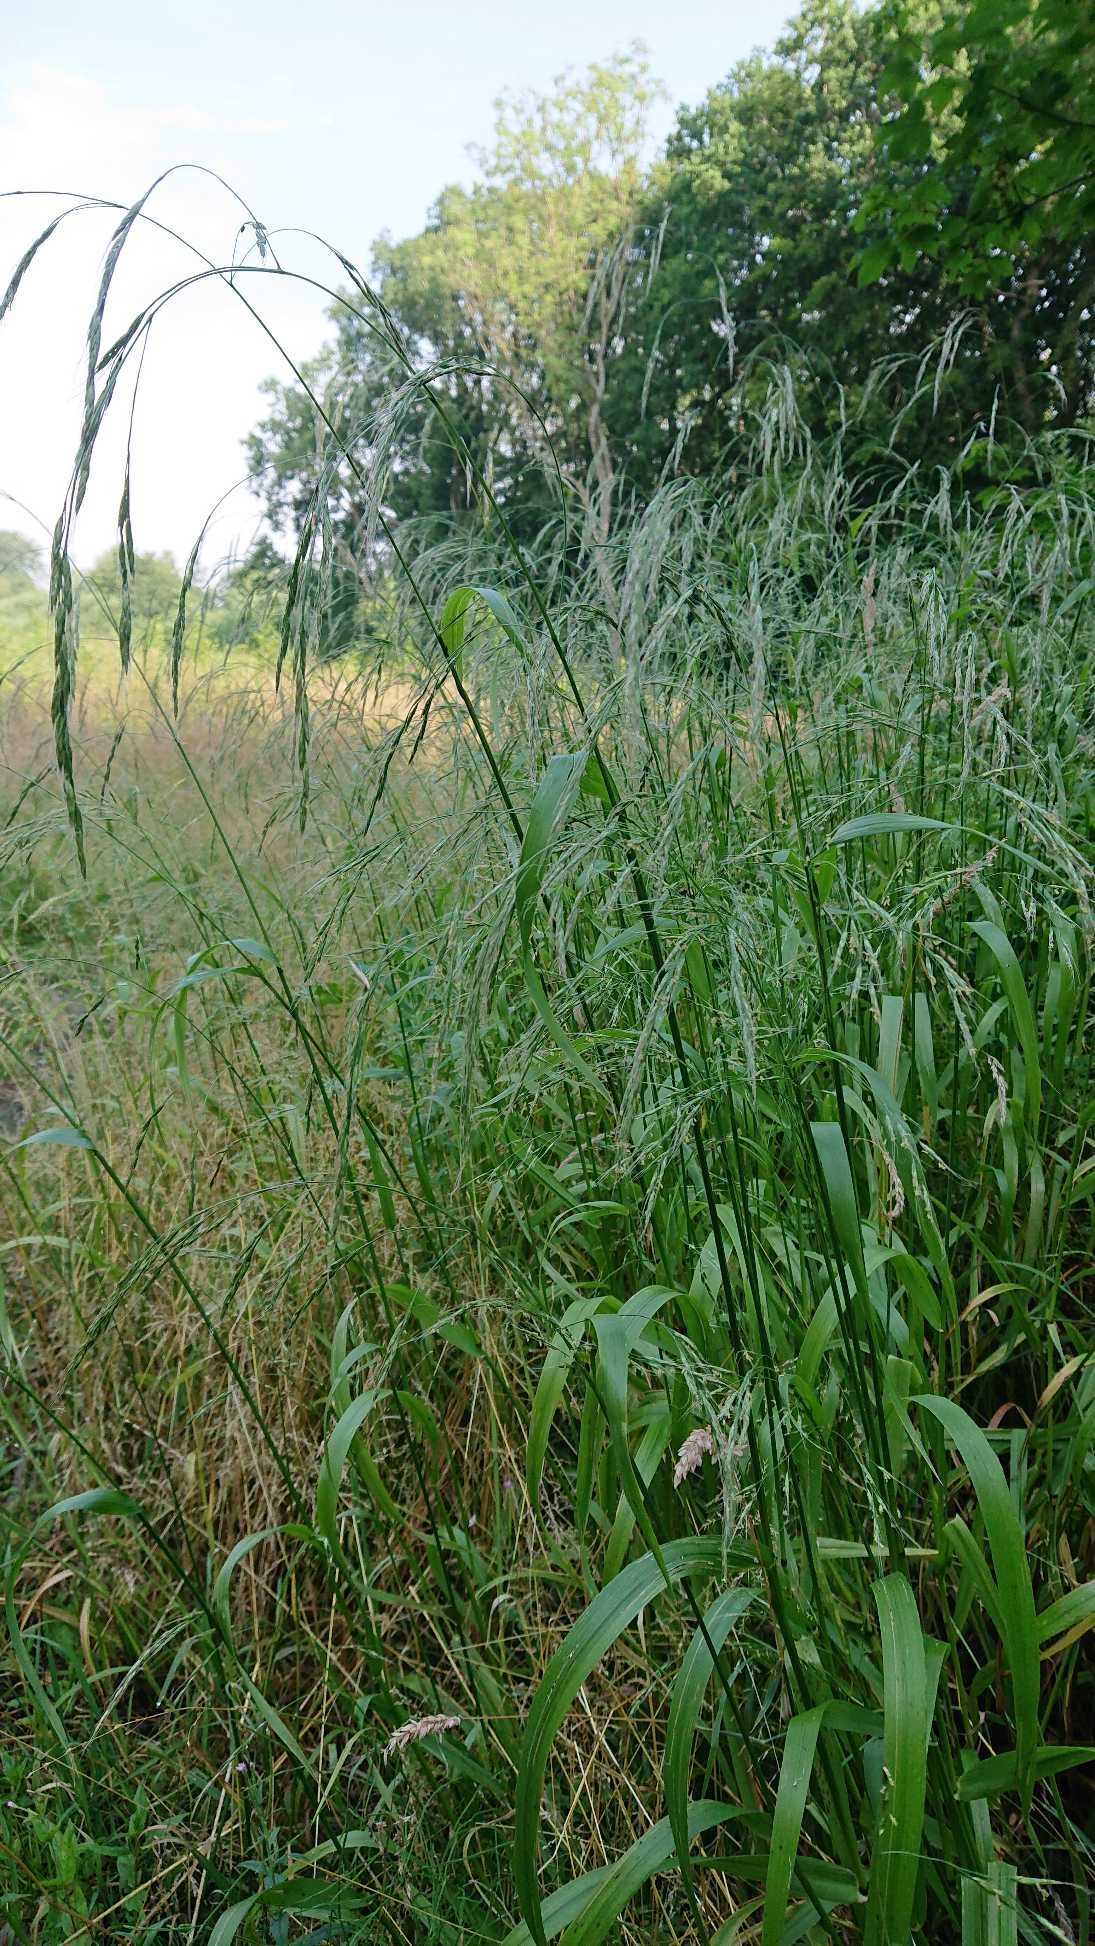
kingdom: Plantae
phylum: Tracheophyta
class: Liliopsida
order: Poales
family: Poaceae
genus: Lolium
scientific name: Lolium giganteum
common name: Kæmpe-svingel
